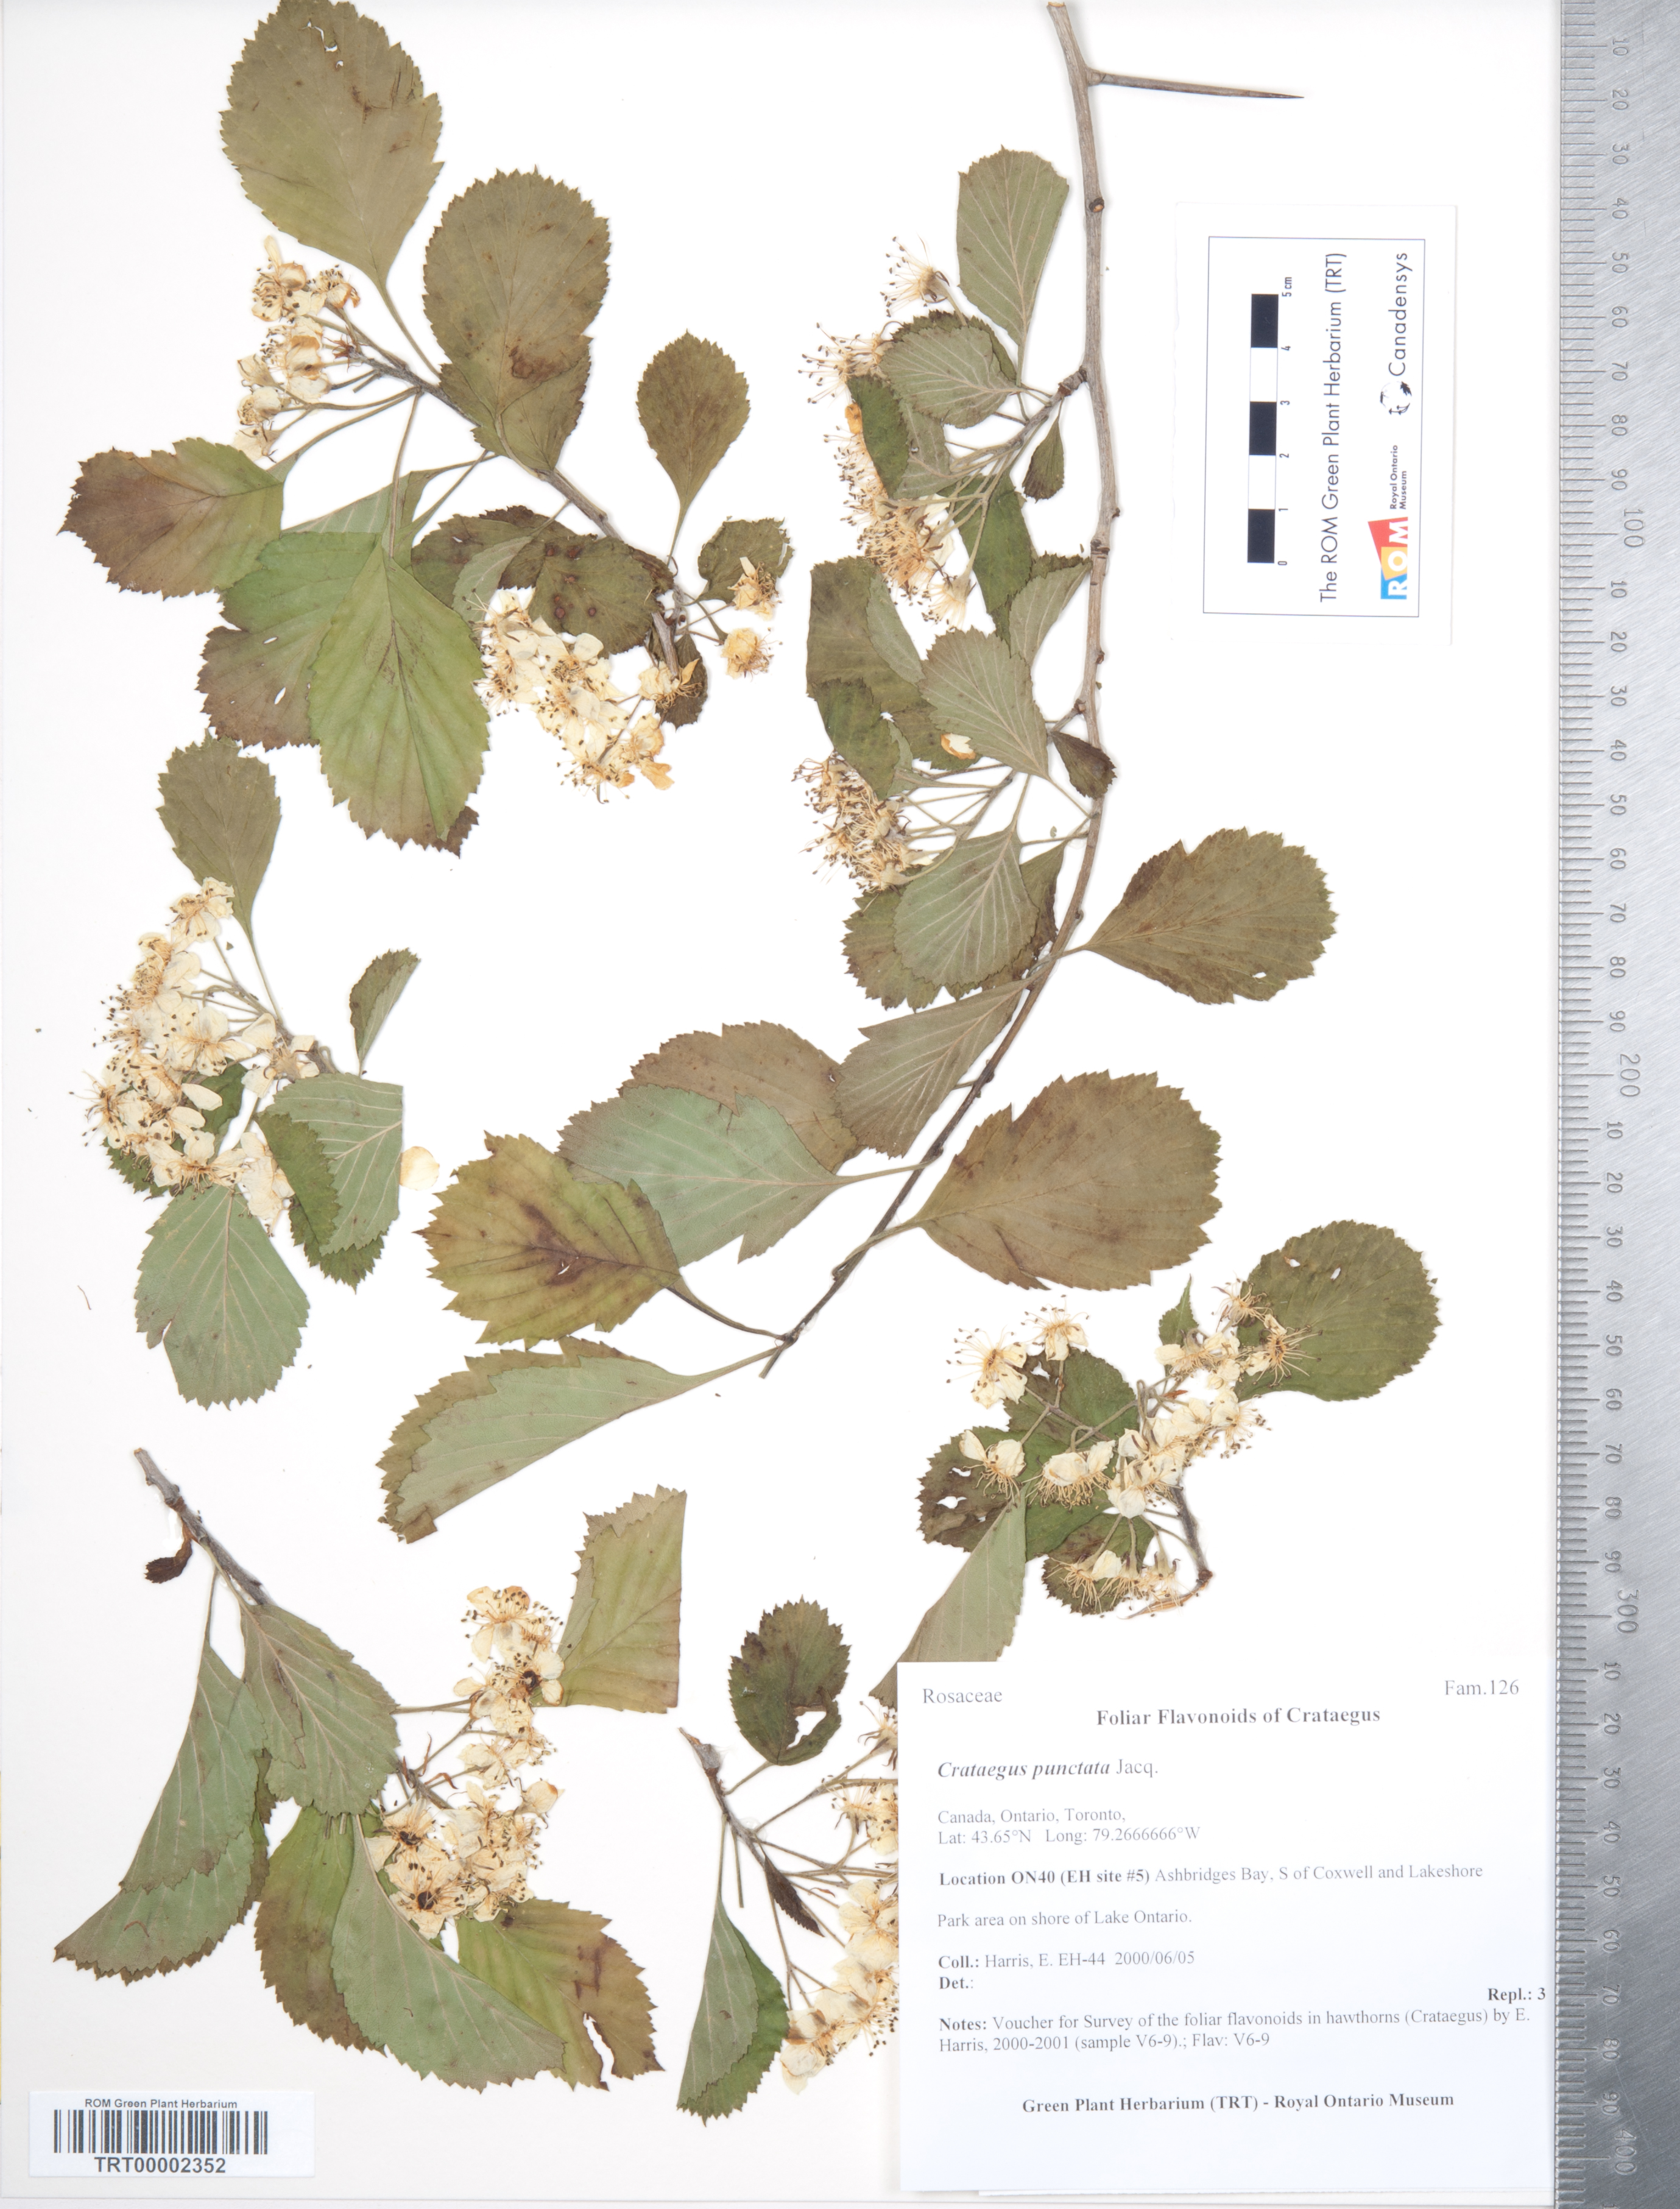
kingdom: Plantae
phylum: Tracheophyta
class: Magnoliopsida
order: Rosales
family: Rosaceae
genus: Crataegus
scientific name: Crataegus punctata
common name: Dotted hawthorn
